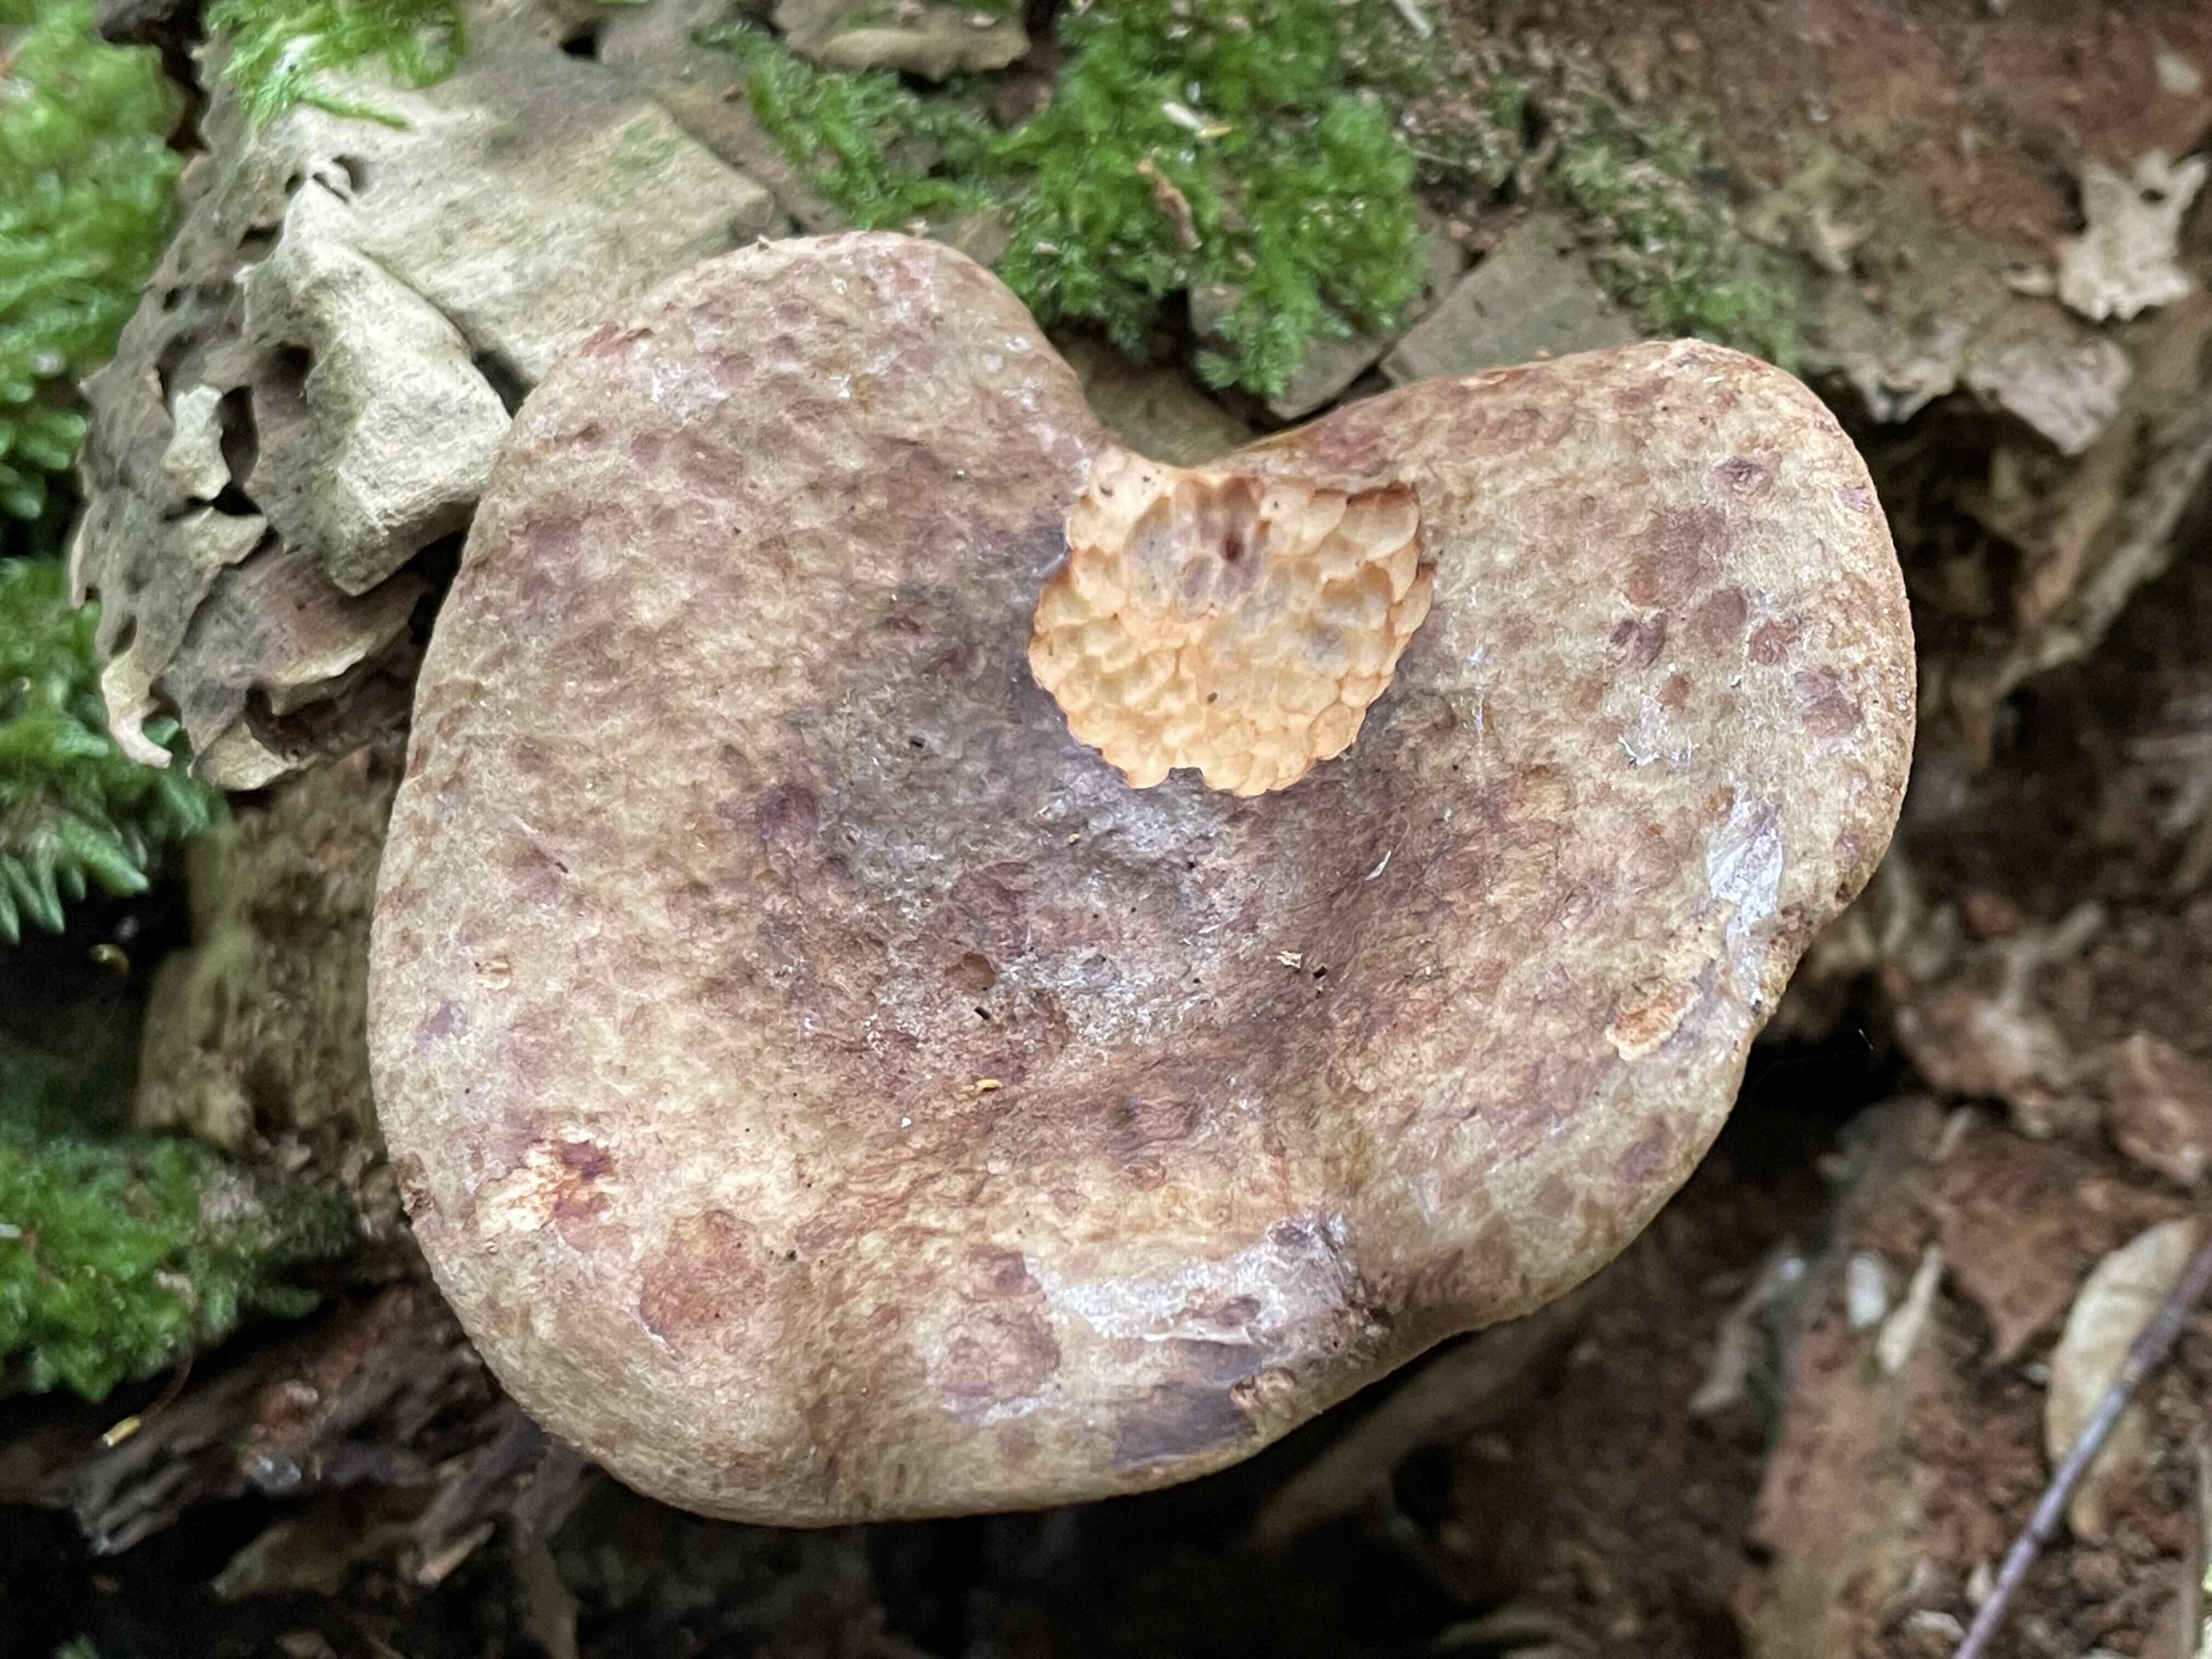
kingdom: Fungi
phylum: Basidiomycota
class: Agaricomycetes
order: Boletales
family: Paxillaceae
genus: Paxillus
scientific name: Paxillus
